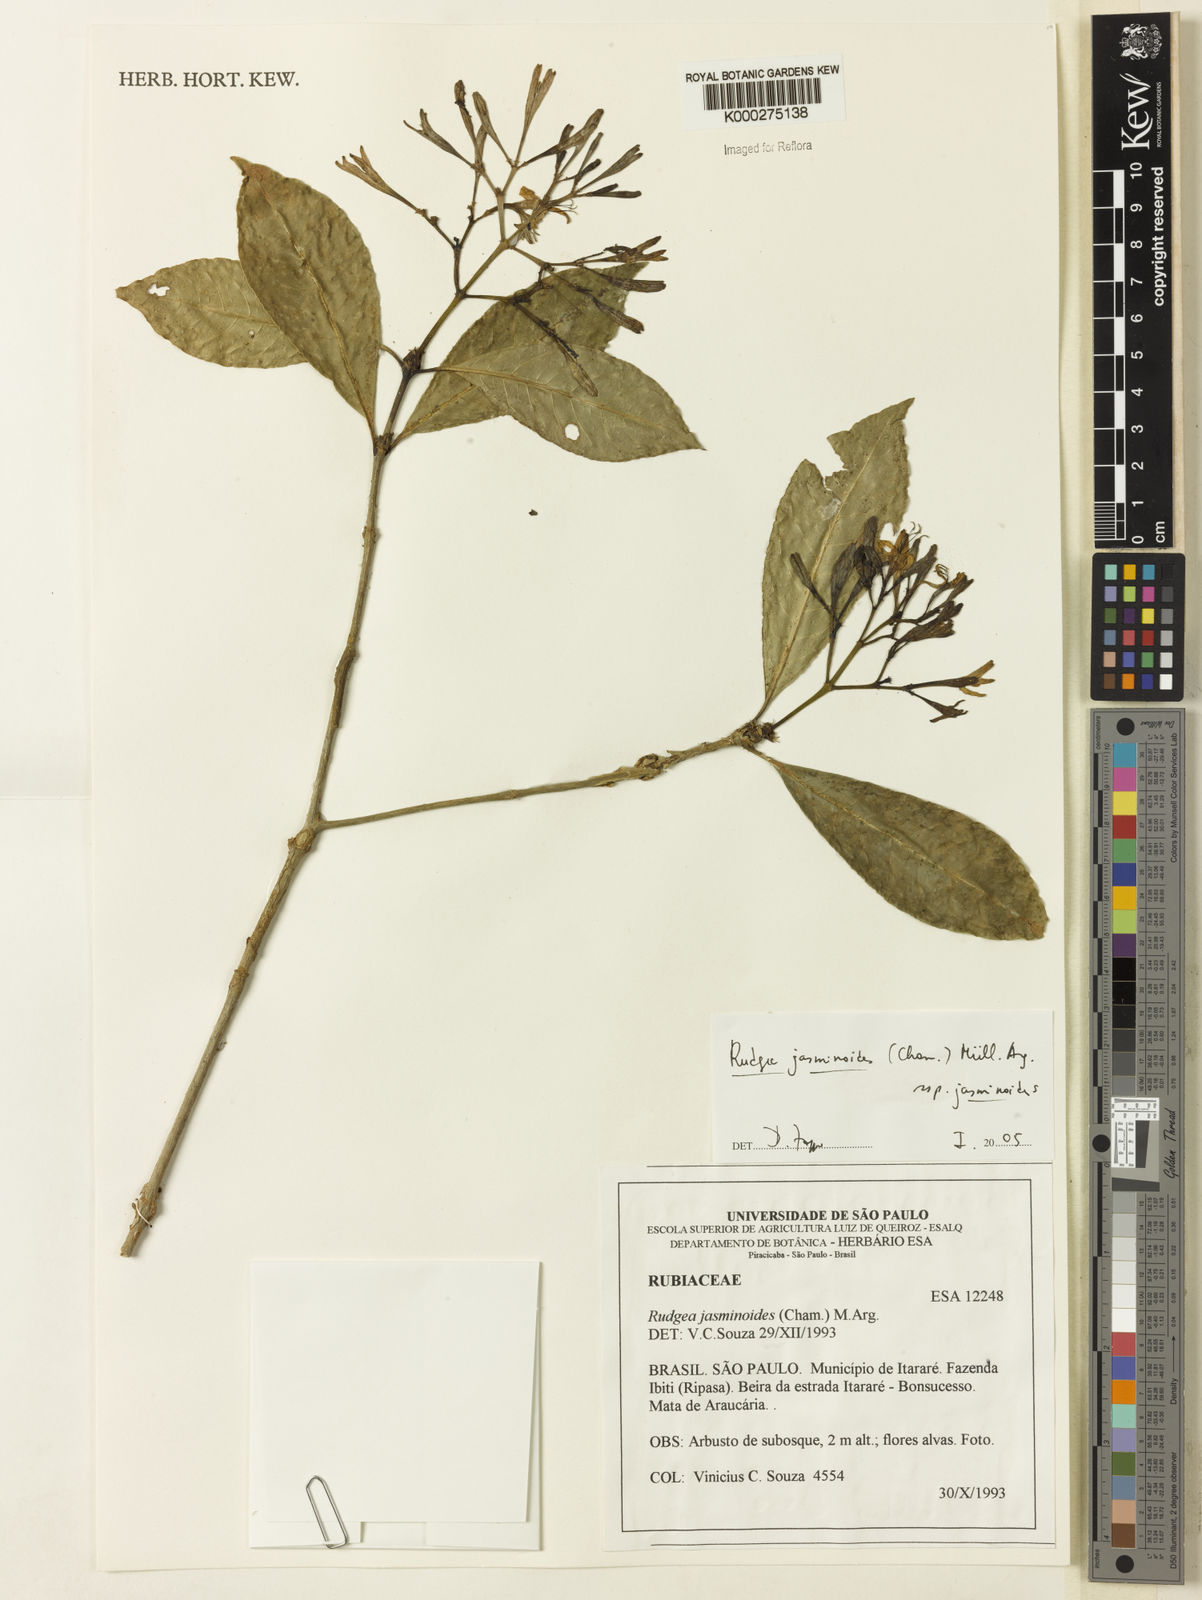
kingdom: Plantae
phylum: Tracheophyta
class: Magnoliopsida
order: Gentianales
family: Rubiaceae
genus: Rudgea
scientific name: Rudgea jasminoides
